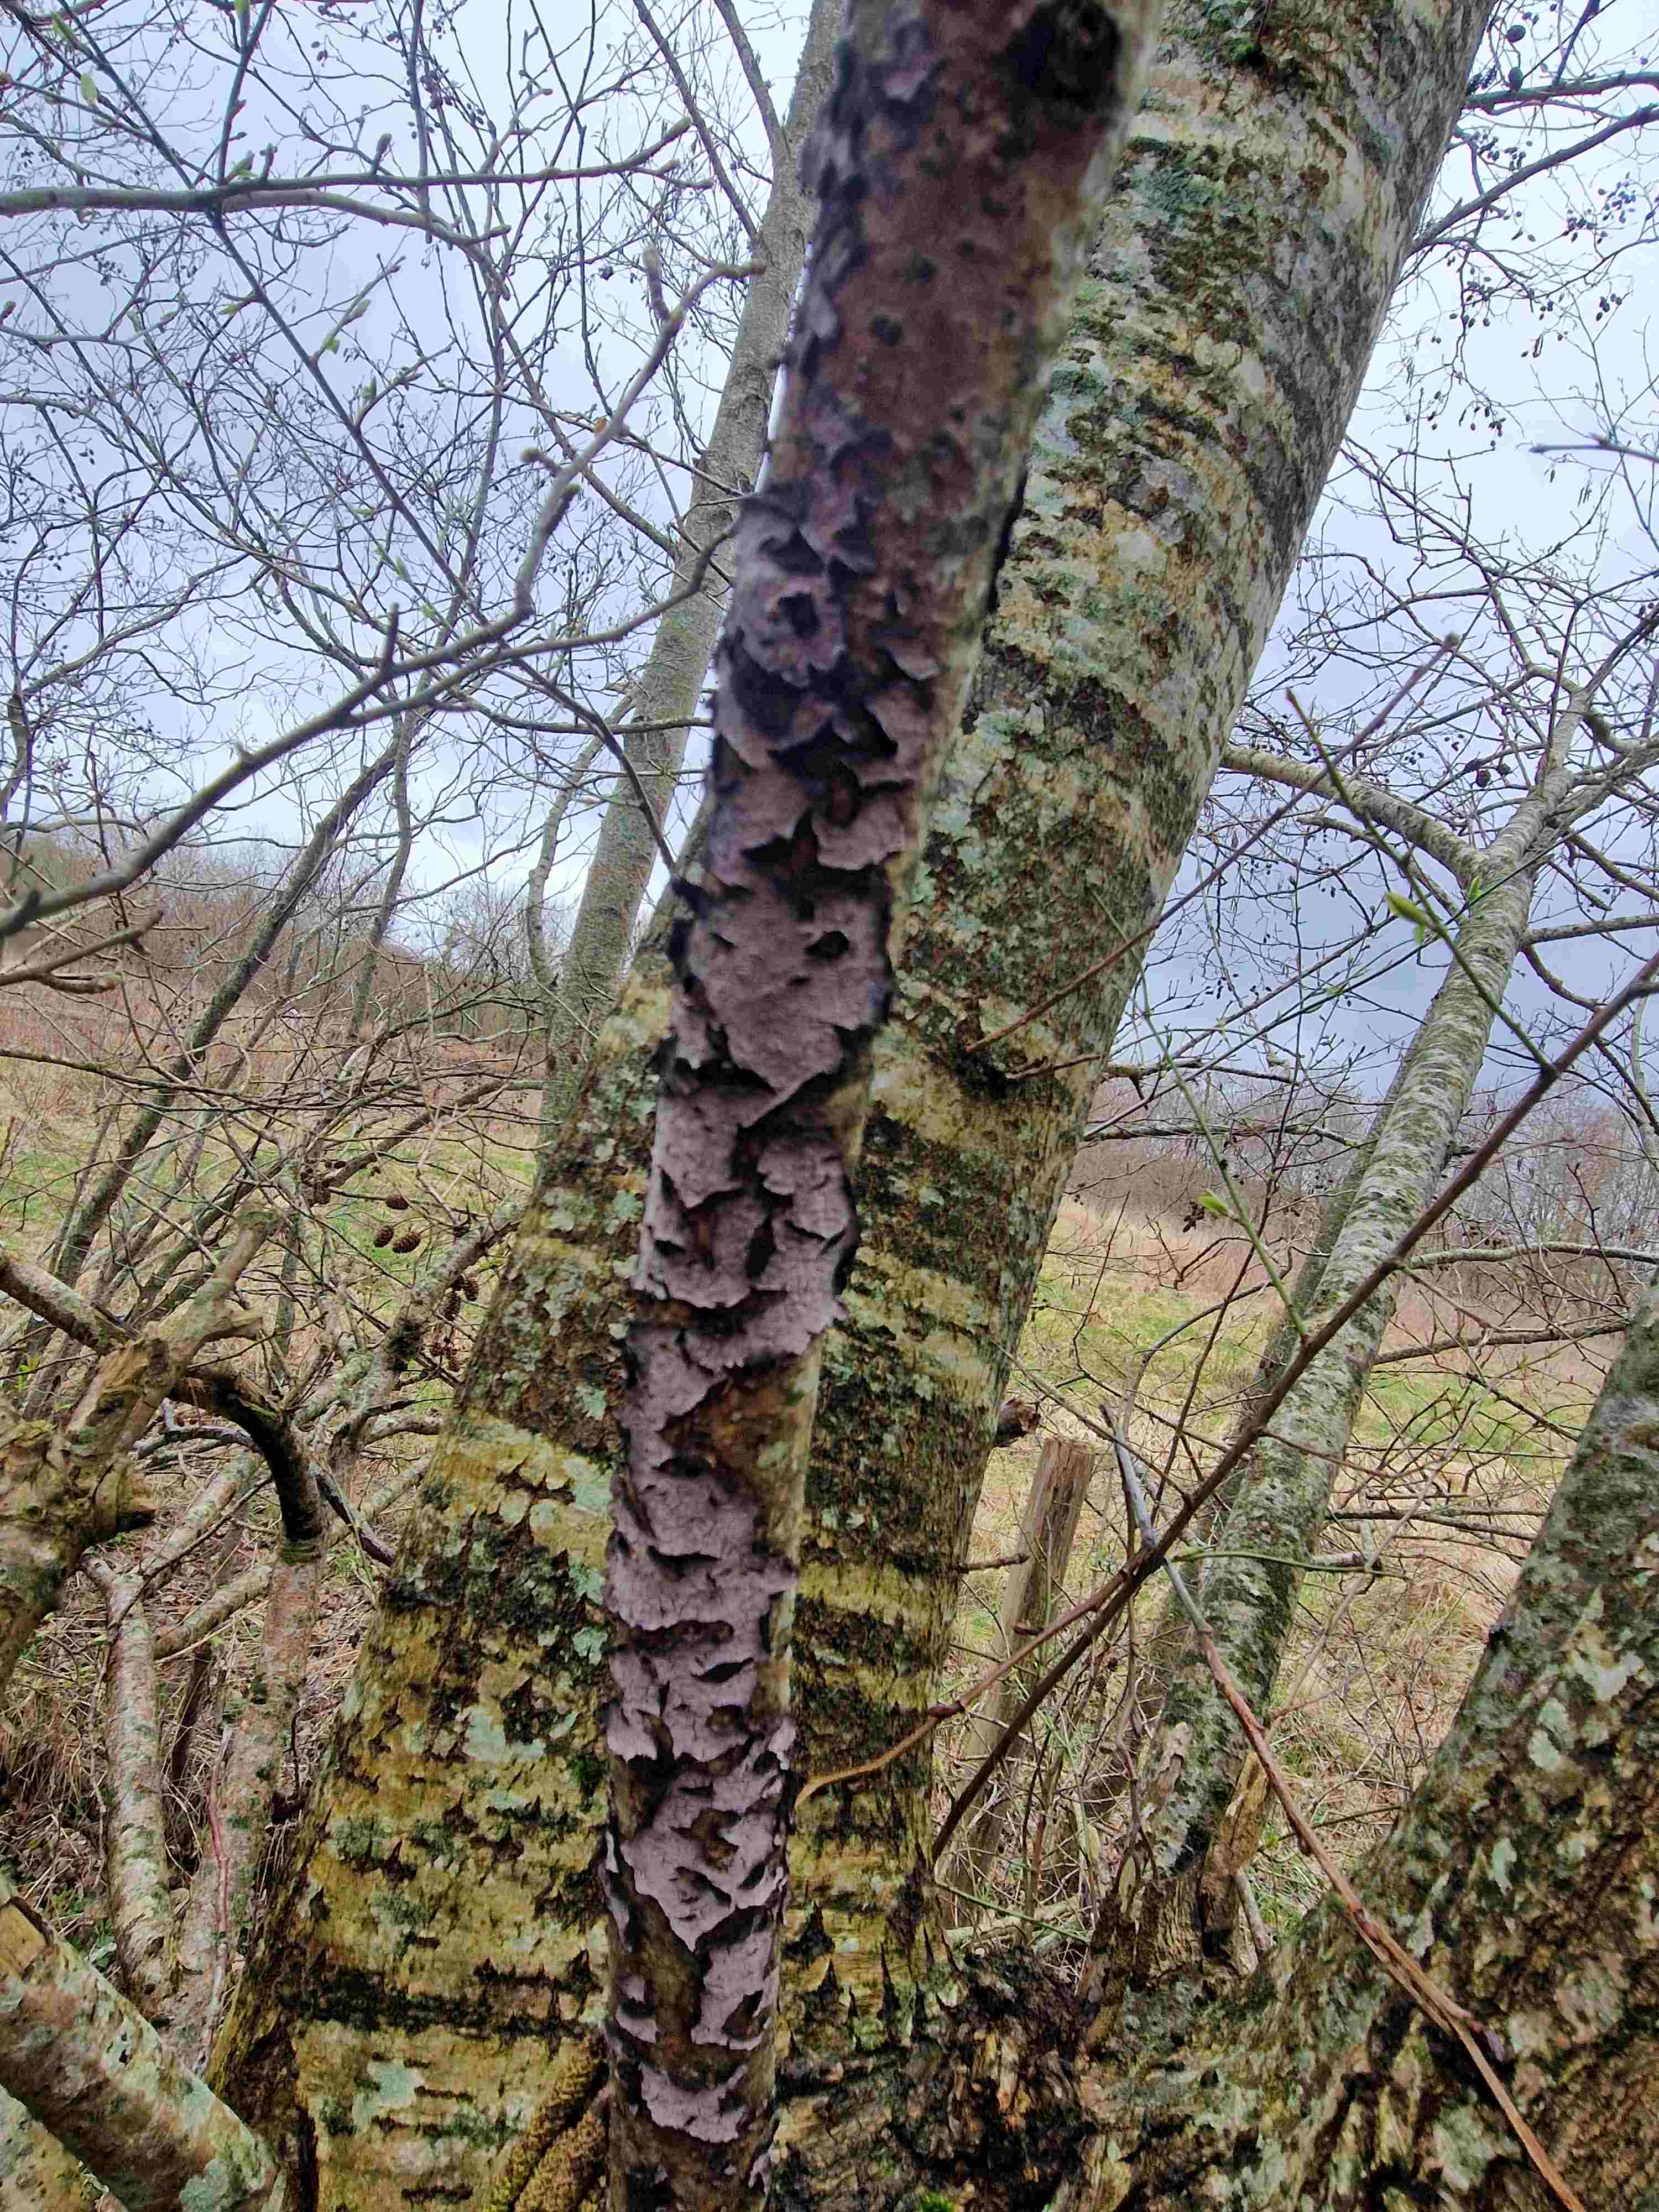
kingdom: Fungi
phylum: Basidiomycota
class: Agaricomycetes
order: Russulales
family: Peniophoraceae
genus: Peniophora
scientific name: Peniophora quercina
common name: ege-voksskind
